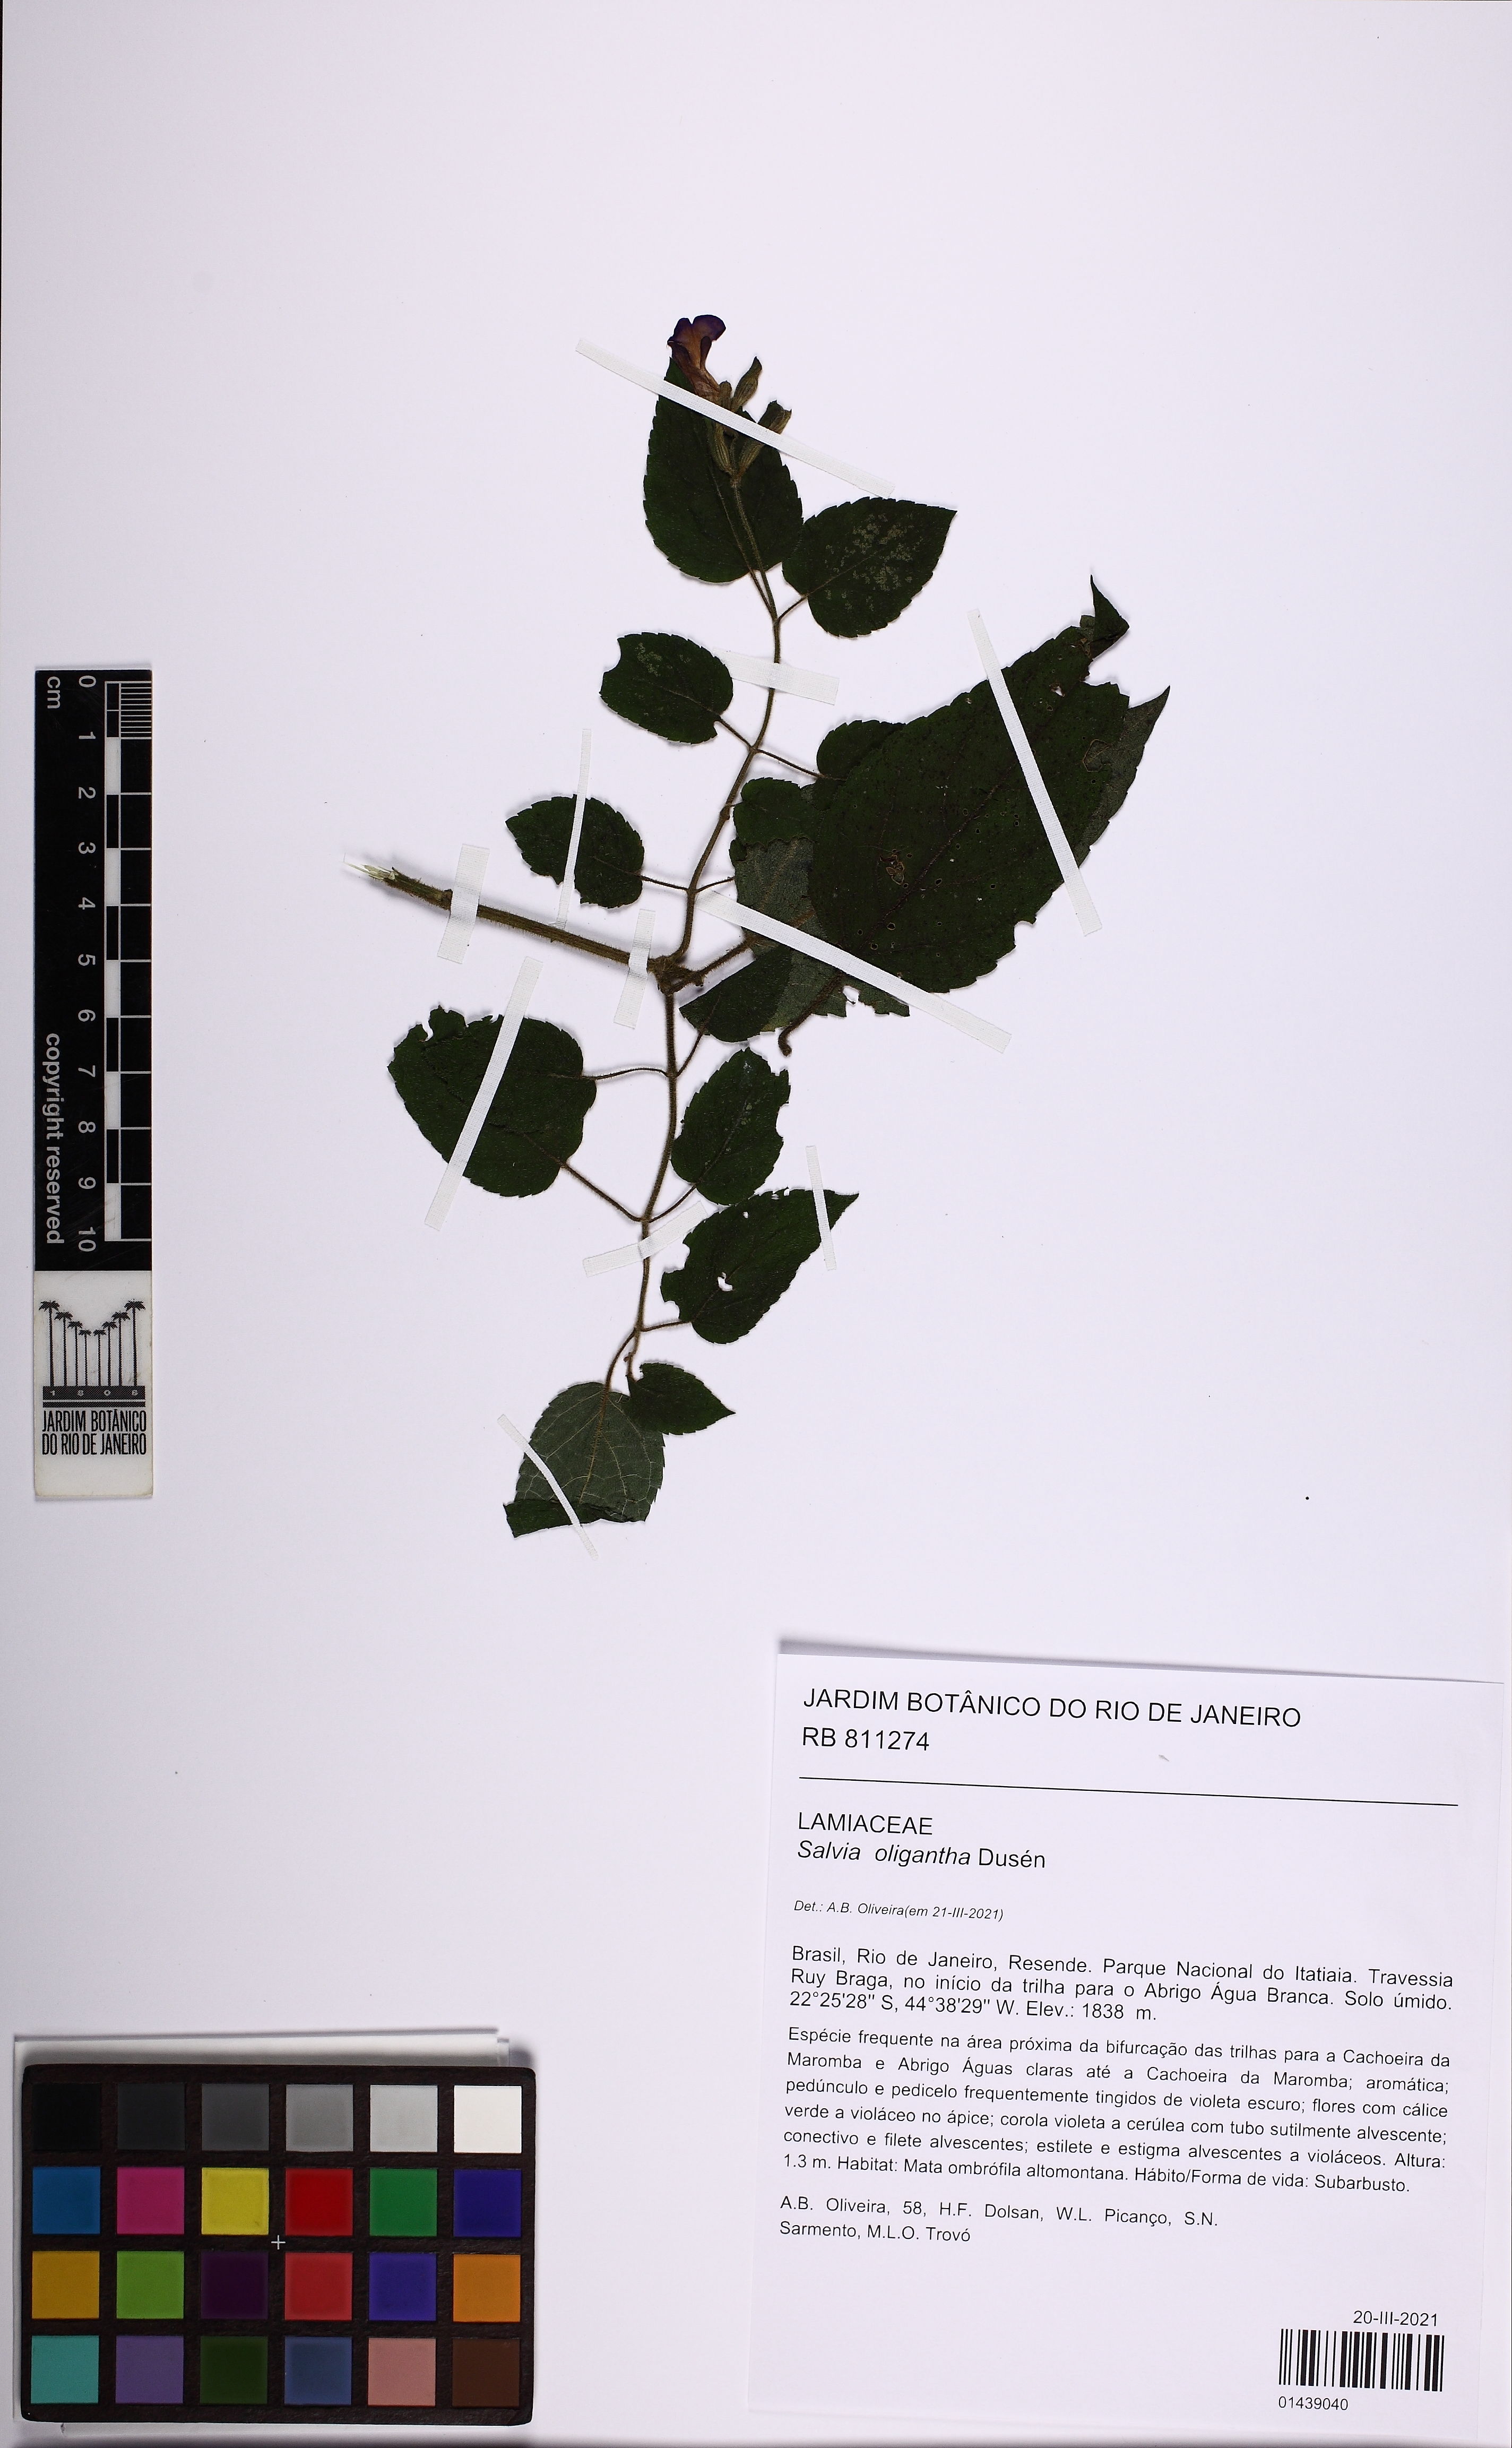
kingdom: Plantae
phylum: Tracheophyta
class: Magnoliopsida
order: Lamiales
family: Lamiaceae
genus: Salvia
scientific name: Salvia oligantha
